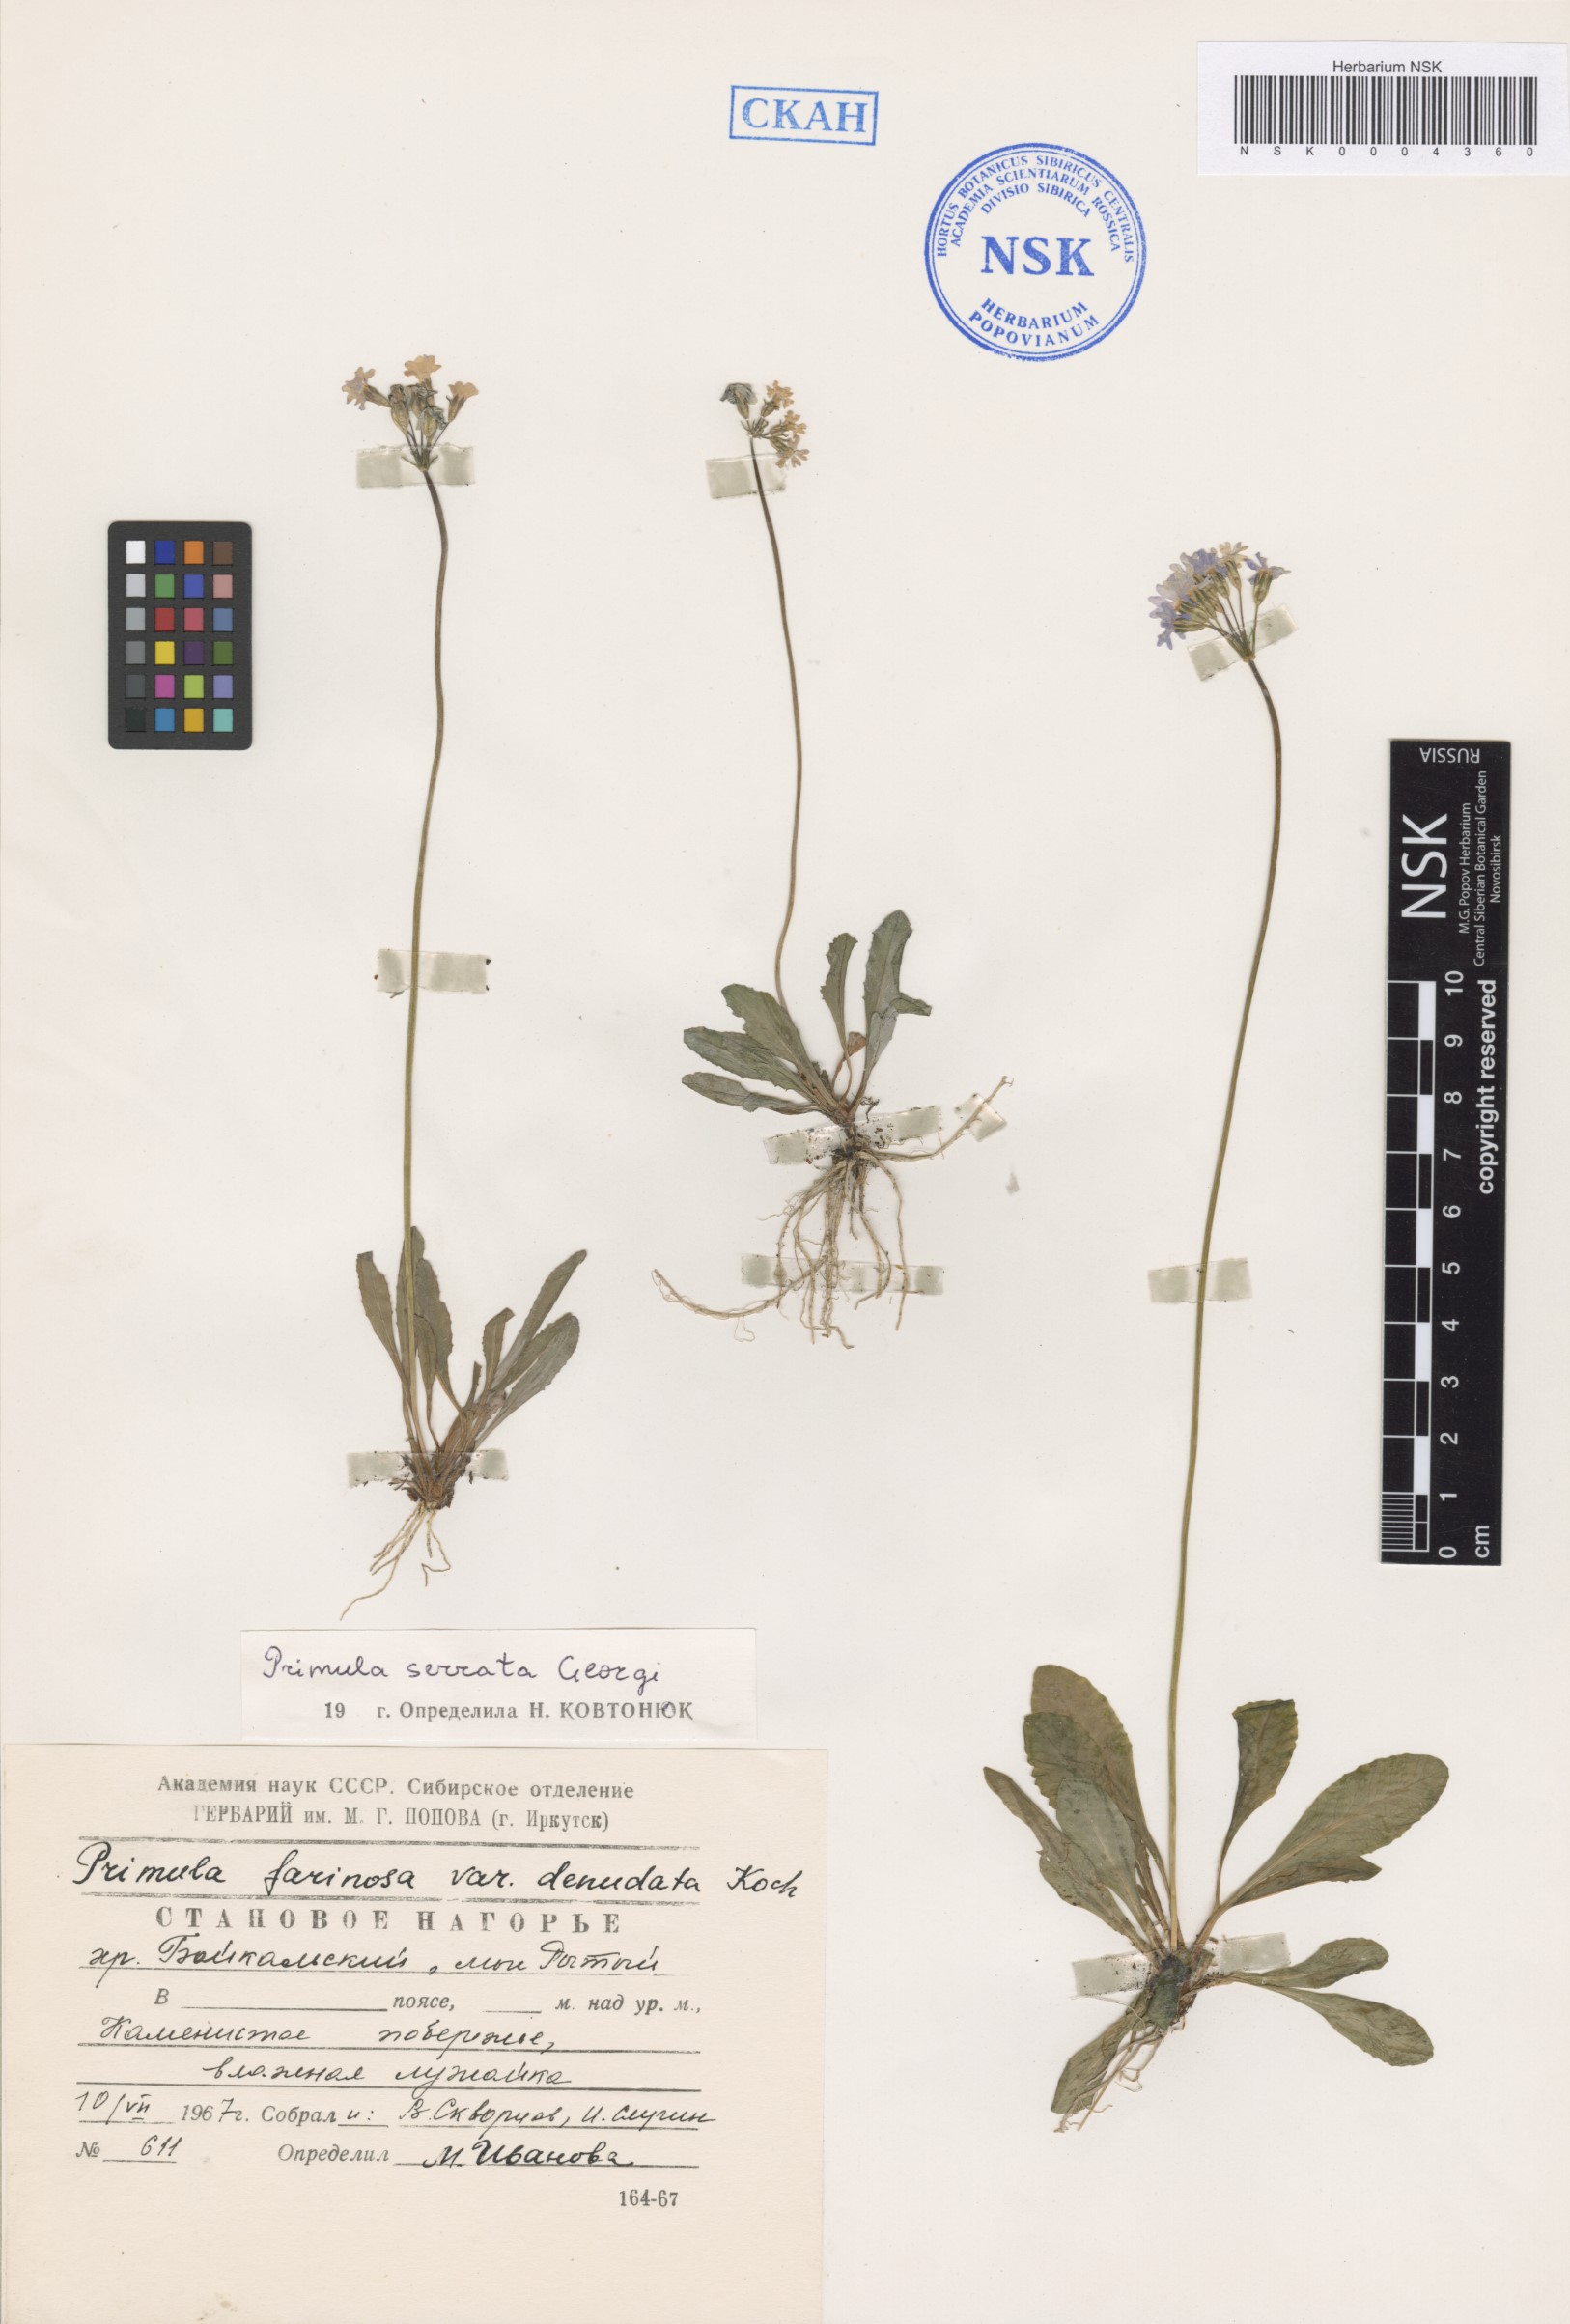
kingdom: Plantae
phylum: Tracheophyta
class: Magnoliopsida
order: Fagales
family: Betulaceae
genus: Betula
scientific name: Betula pendula
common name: Silver birch
